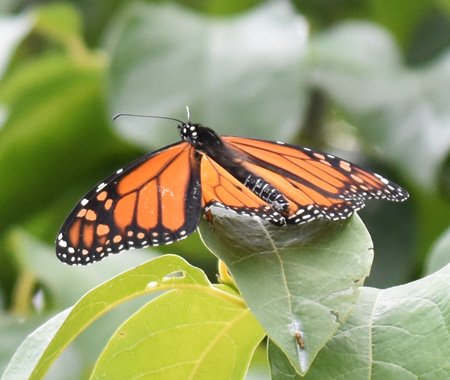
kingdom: Animalia
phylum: Arthropoda
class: Insecta
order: Lepidoptera
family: Nymphalidae
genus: Danaus
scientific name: Danaus plexippus
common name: Monarch
